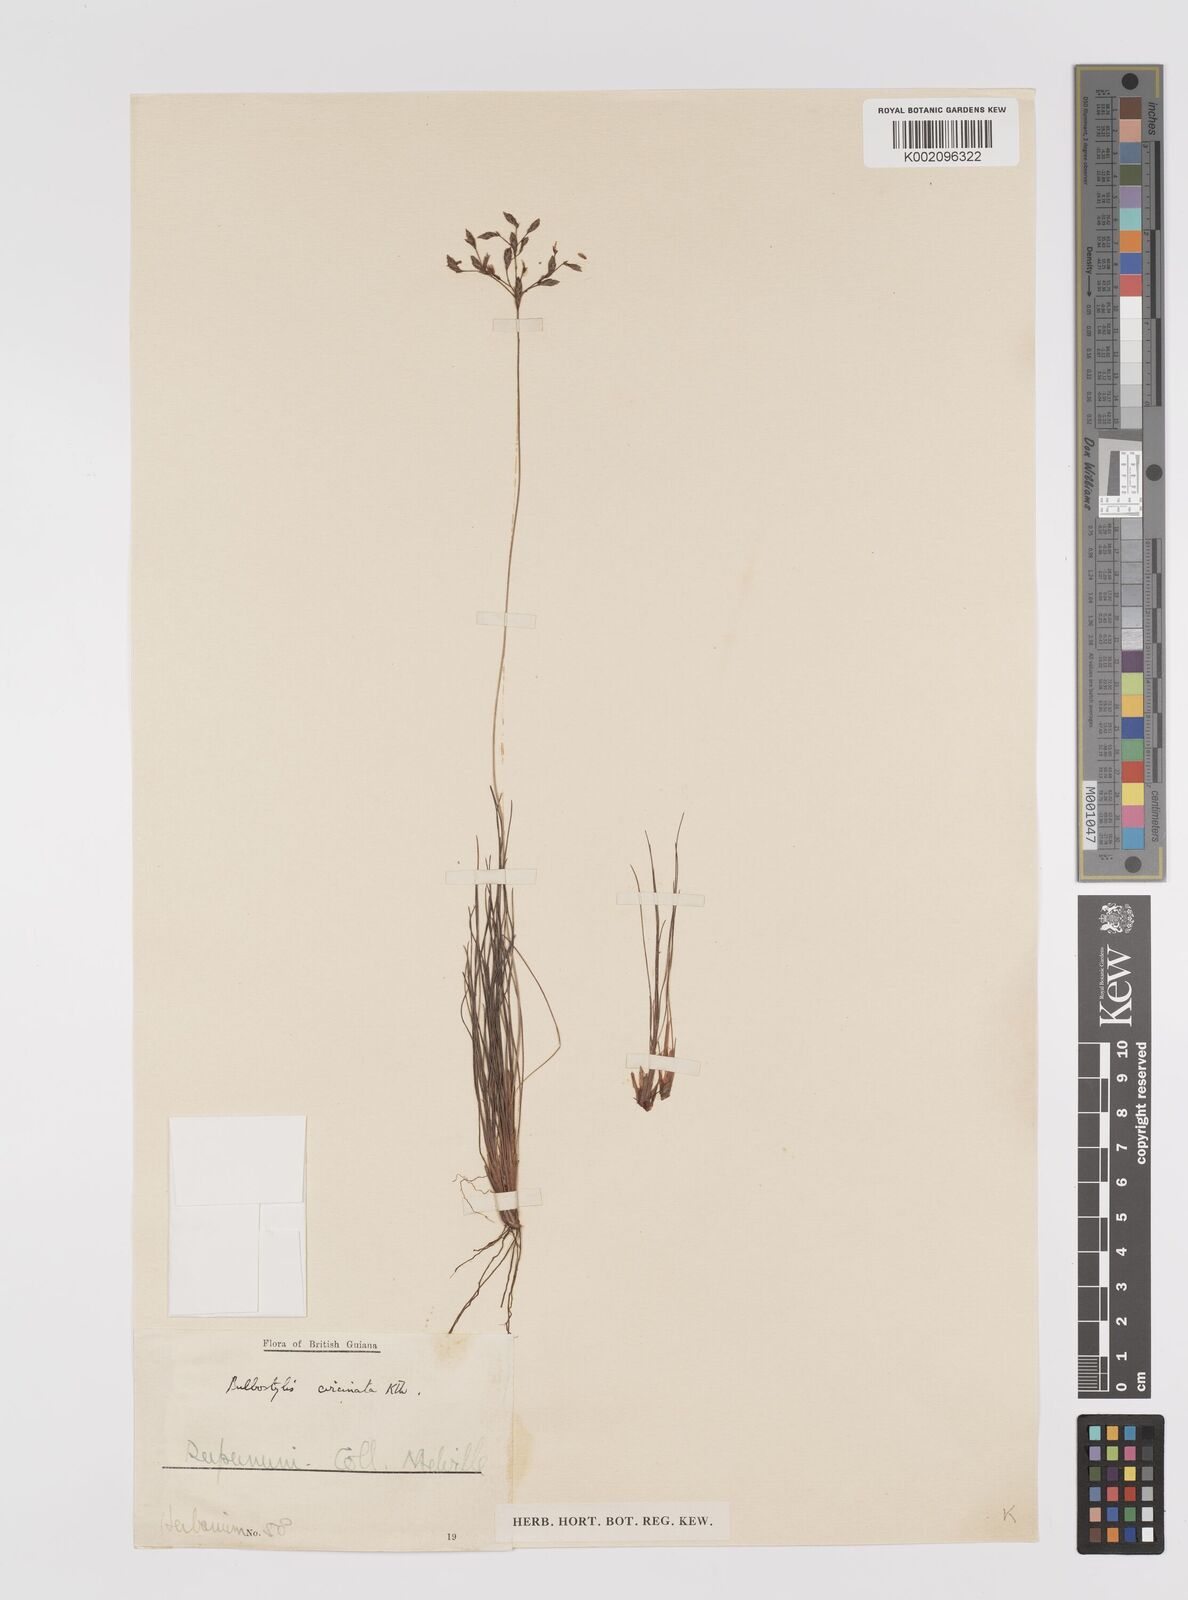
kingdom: Plantae
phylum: Tracheophyta
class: Liliopsida
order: Poales
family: Cyperaceae
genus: Bulbostylis
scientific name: Bulbostylis circinata
